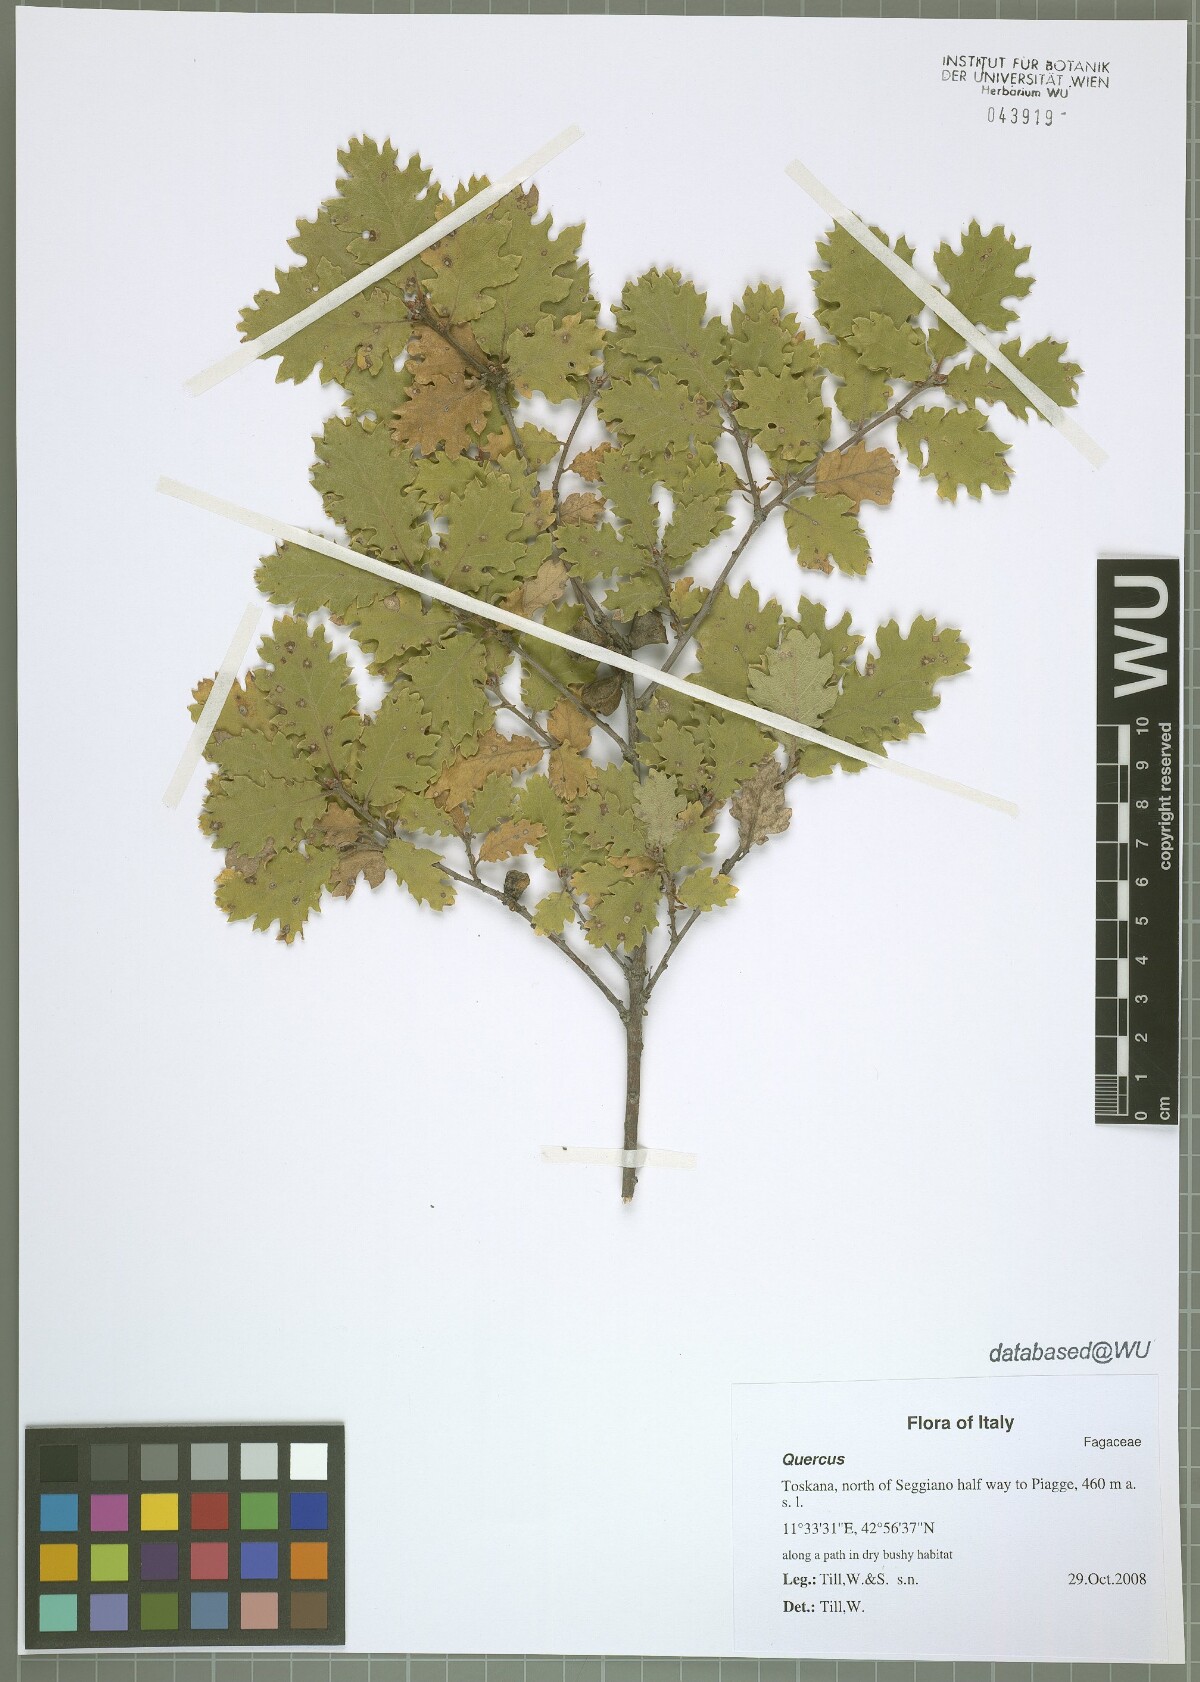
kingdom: Plantae
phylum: Tracheophyta
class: Magnoliopsida
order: Fagales
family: Fagaceae
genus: Quercus
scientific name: Quercus pubescens
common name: Downy oak
